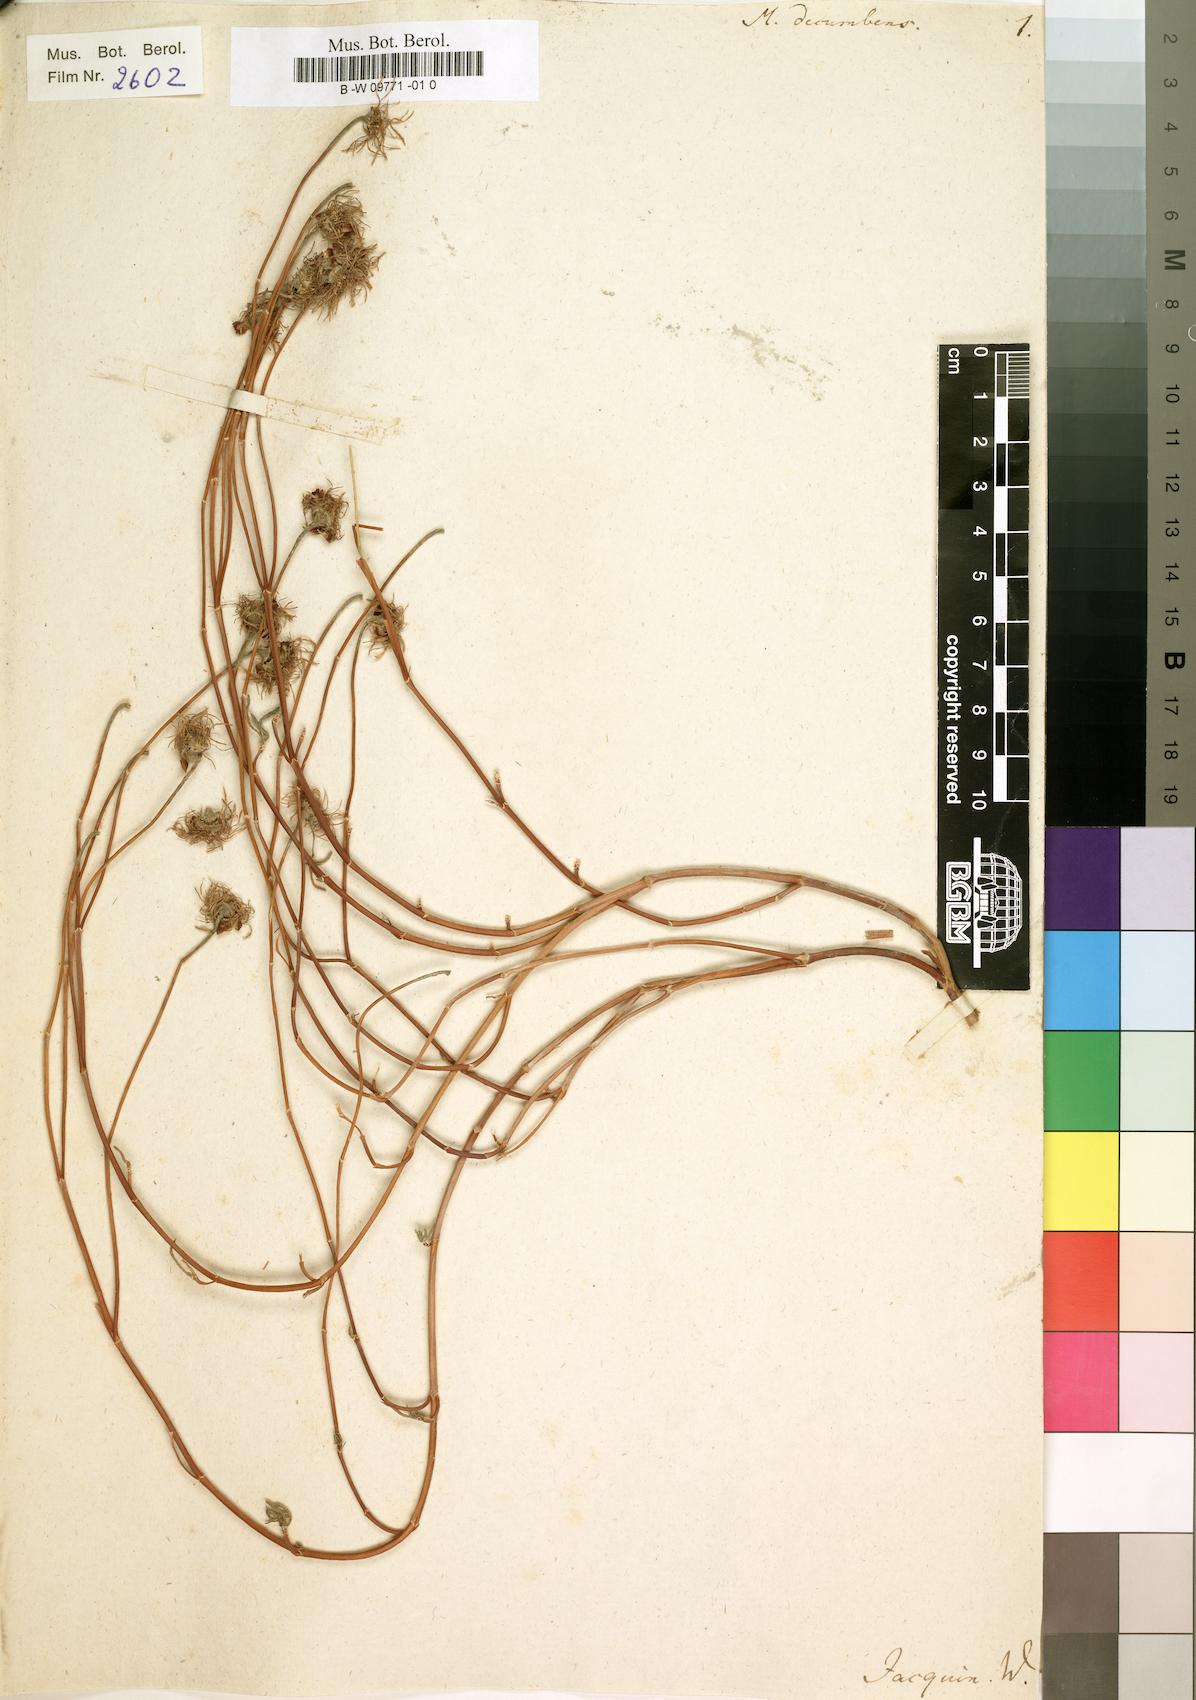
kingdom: Plantae
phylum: Tracheophyta
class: Magnoliopsida
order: Caryophyllales
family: Aizoaceae
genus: Mesembryanthemum
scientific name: Mesembryanthemum decumbens
